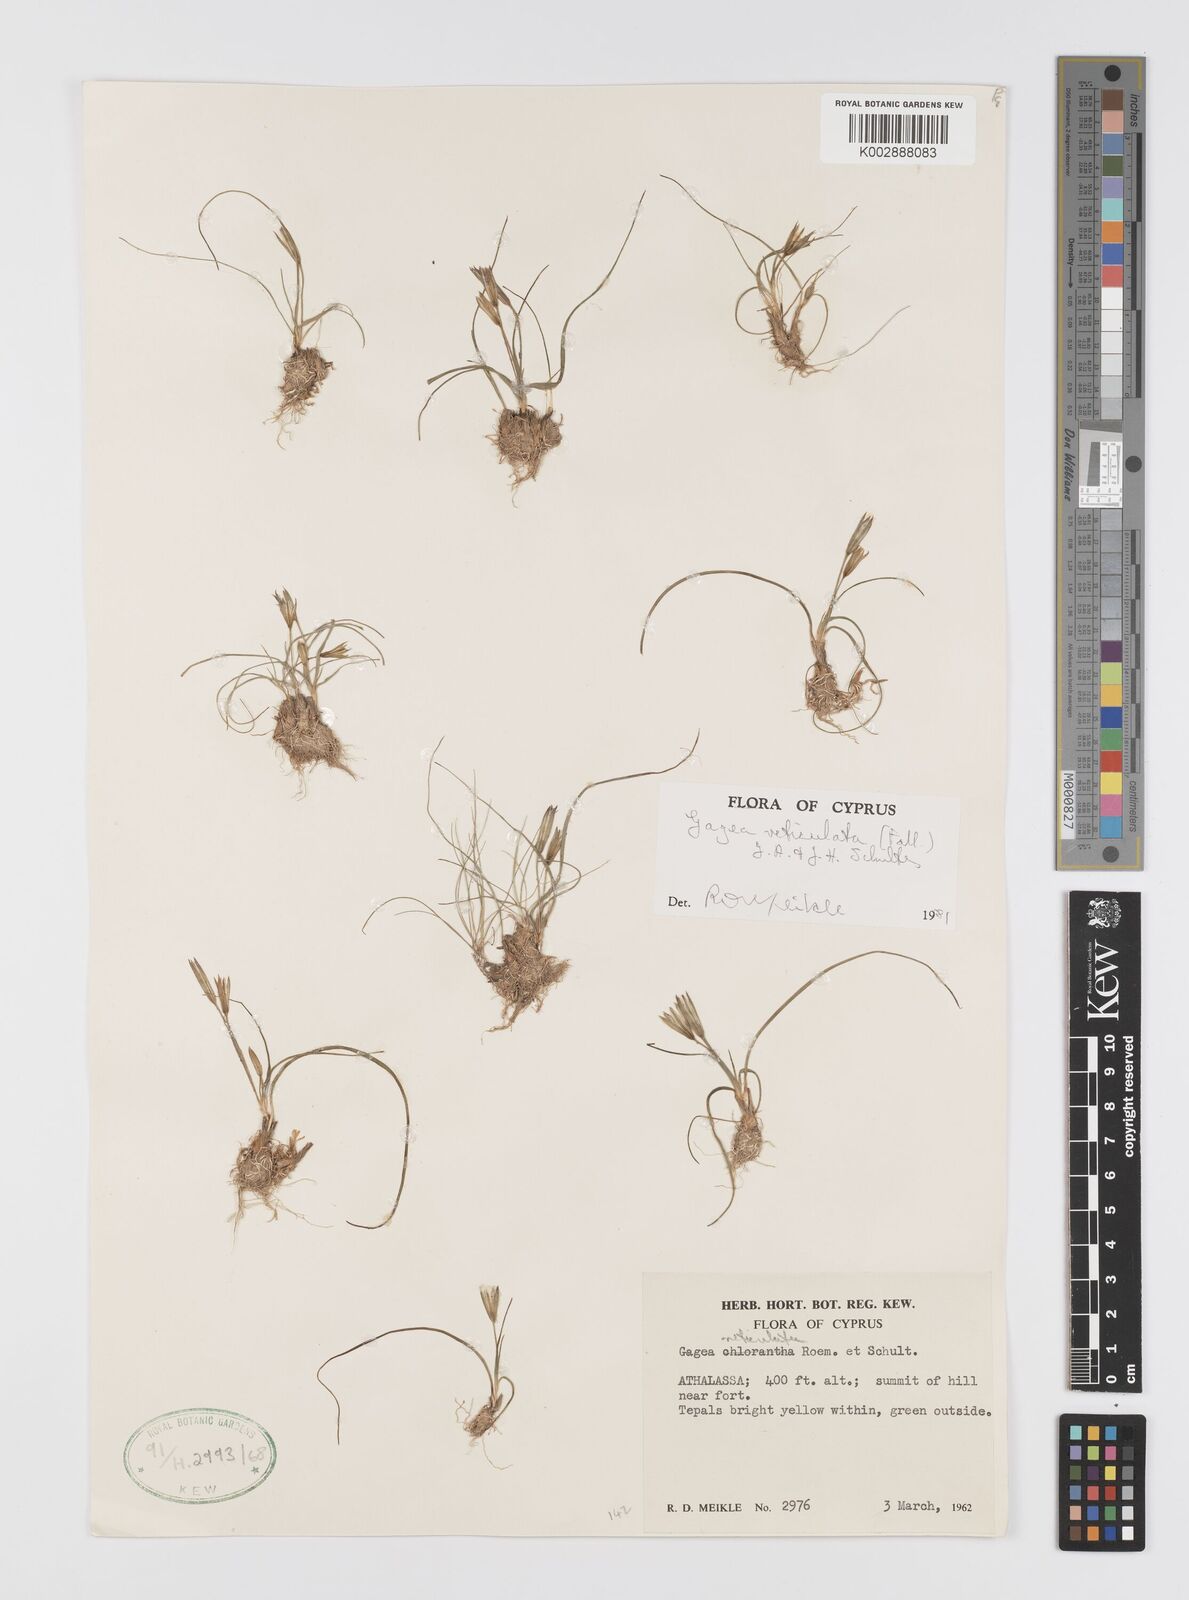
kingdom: Plantae
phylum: Tracheophyta
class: Liliopsida
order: Liliales
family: Liliaceae
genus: Gagea
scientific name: Gagea reticulata
